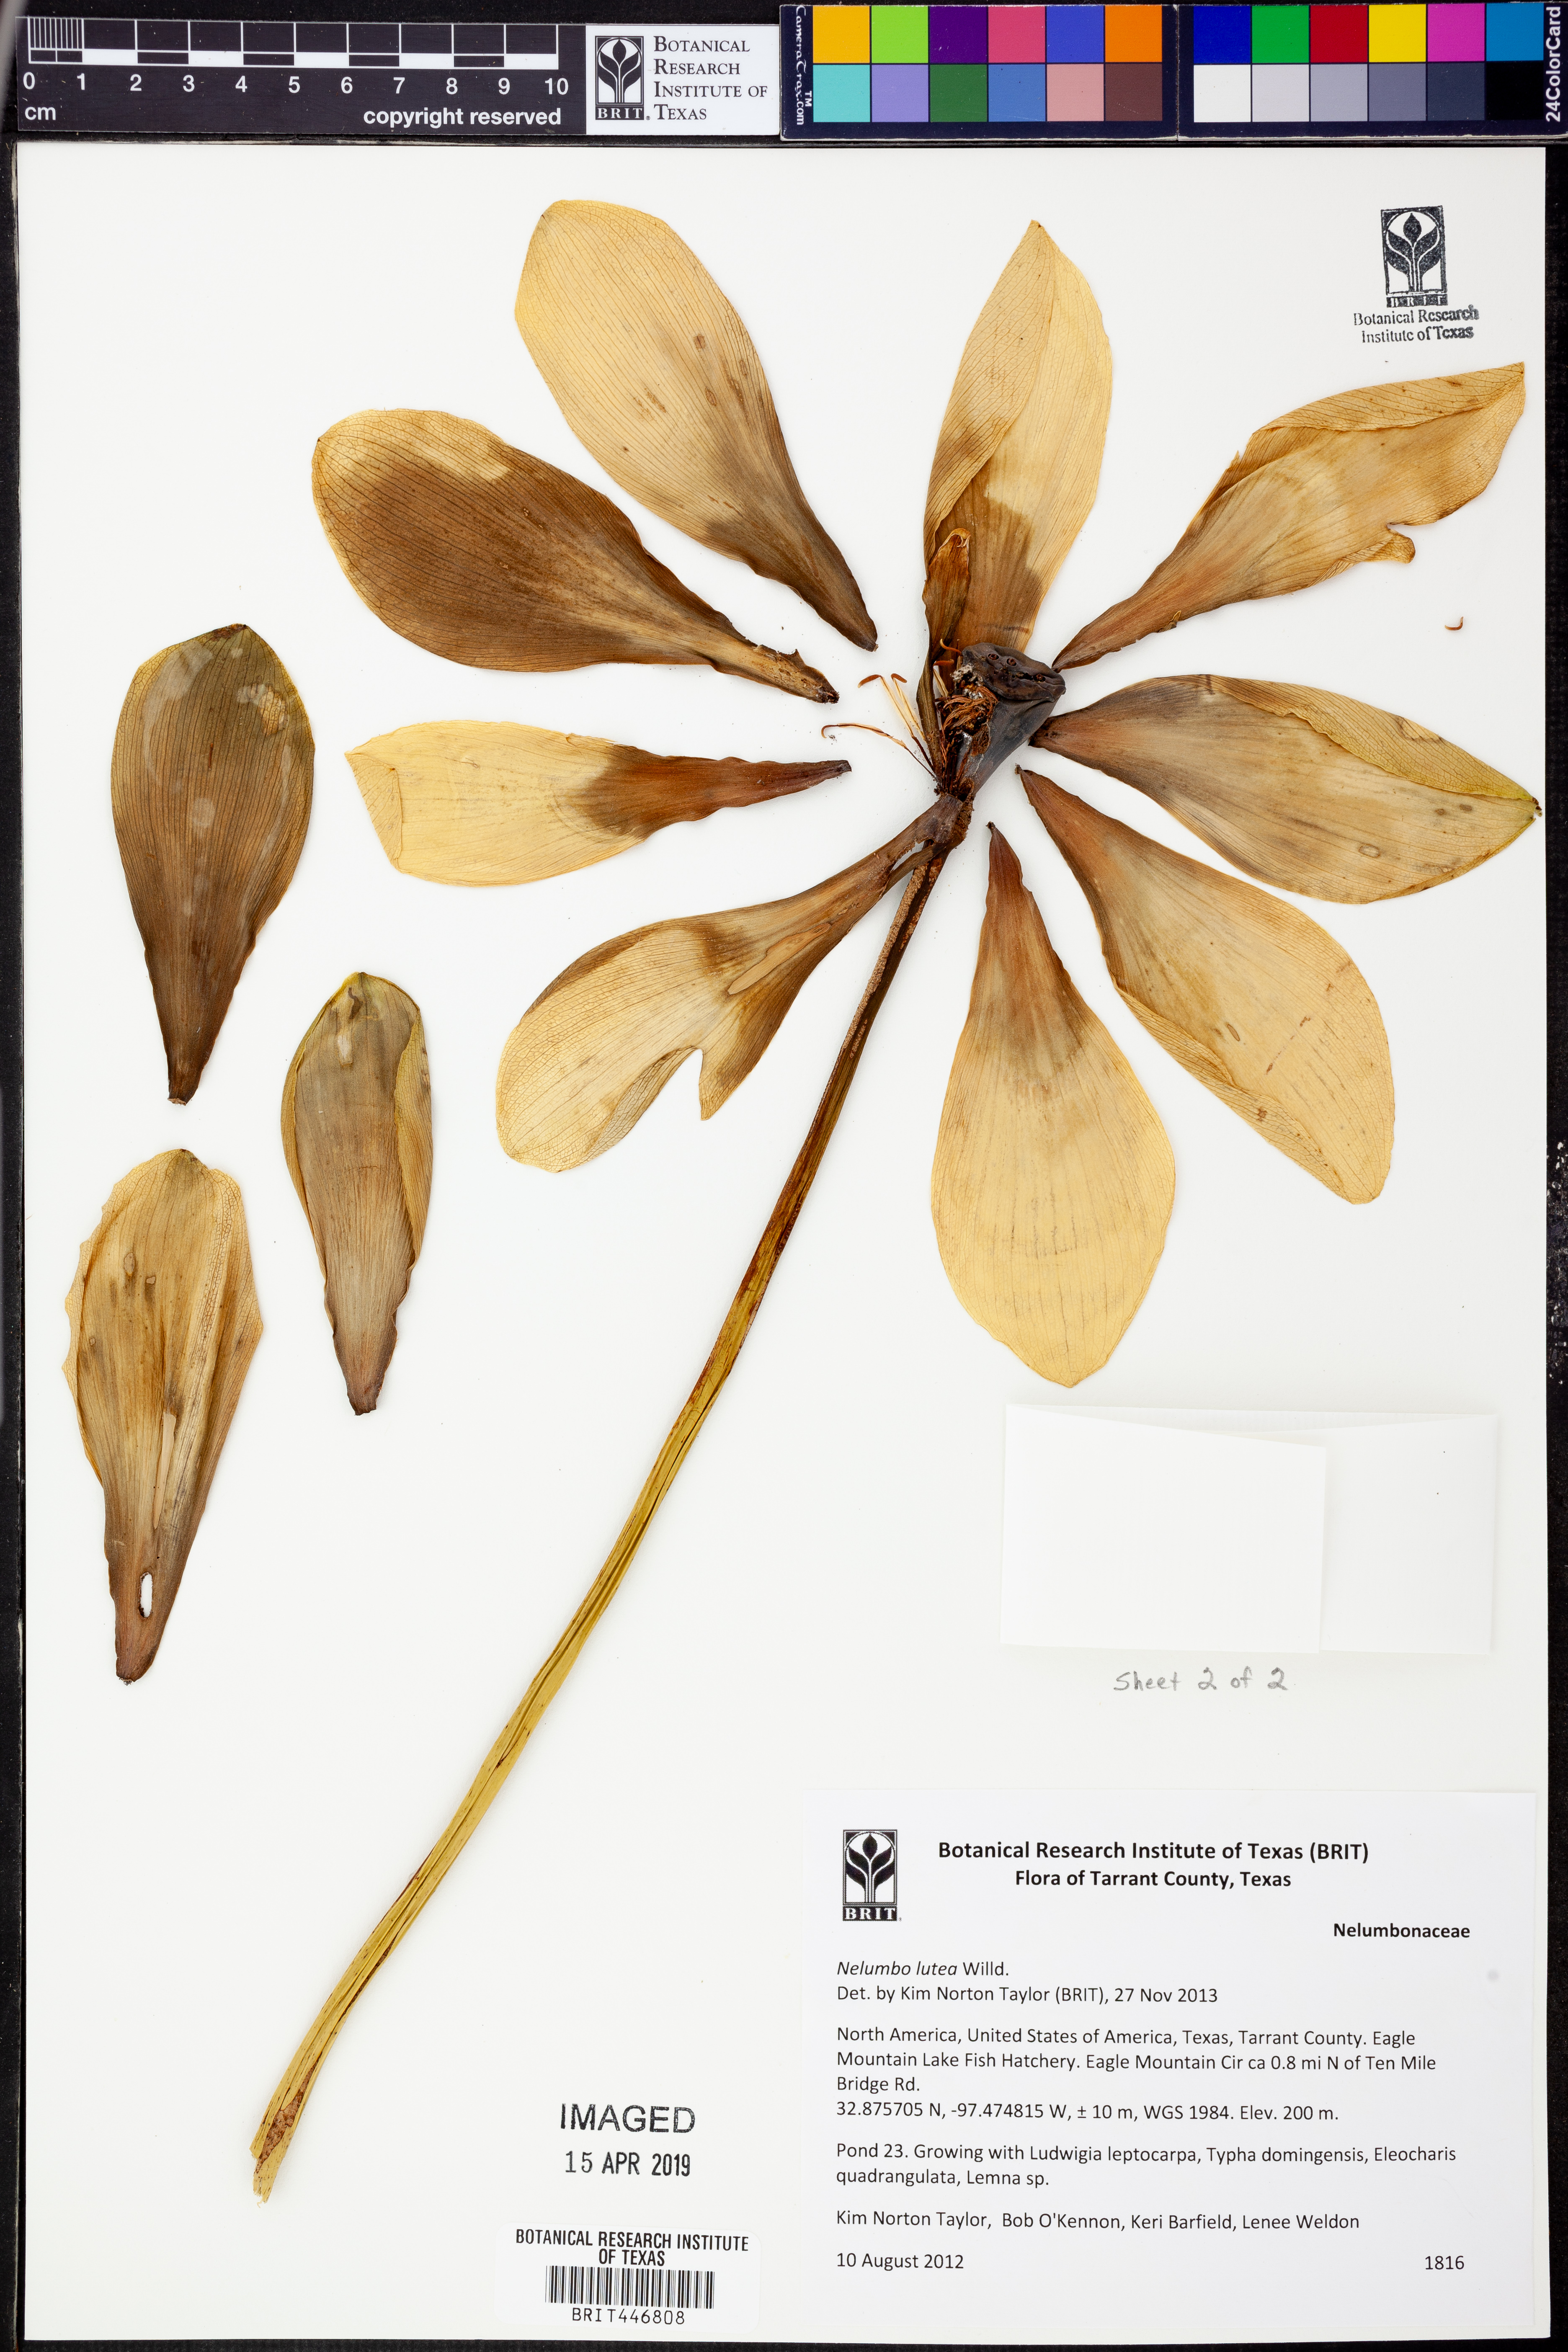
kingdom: Plantae
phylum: Tracheophyta
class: Magnoliopsida
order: Proteales
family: Nelumbonaceae
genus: Nelumbo
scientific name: Nelumbo lutea
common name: American lotus
